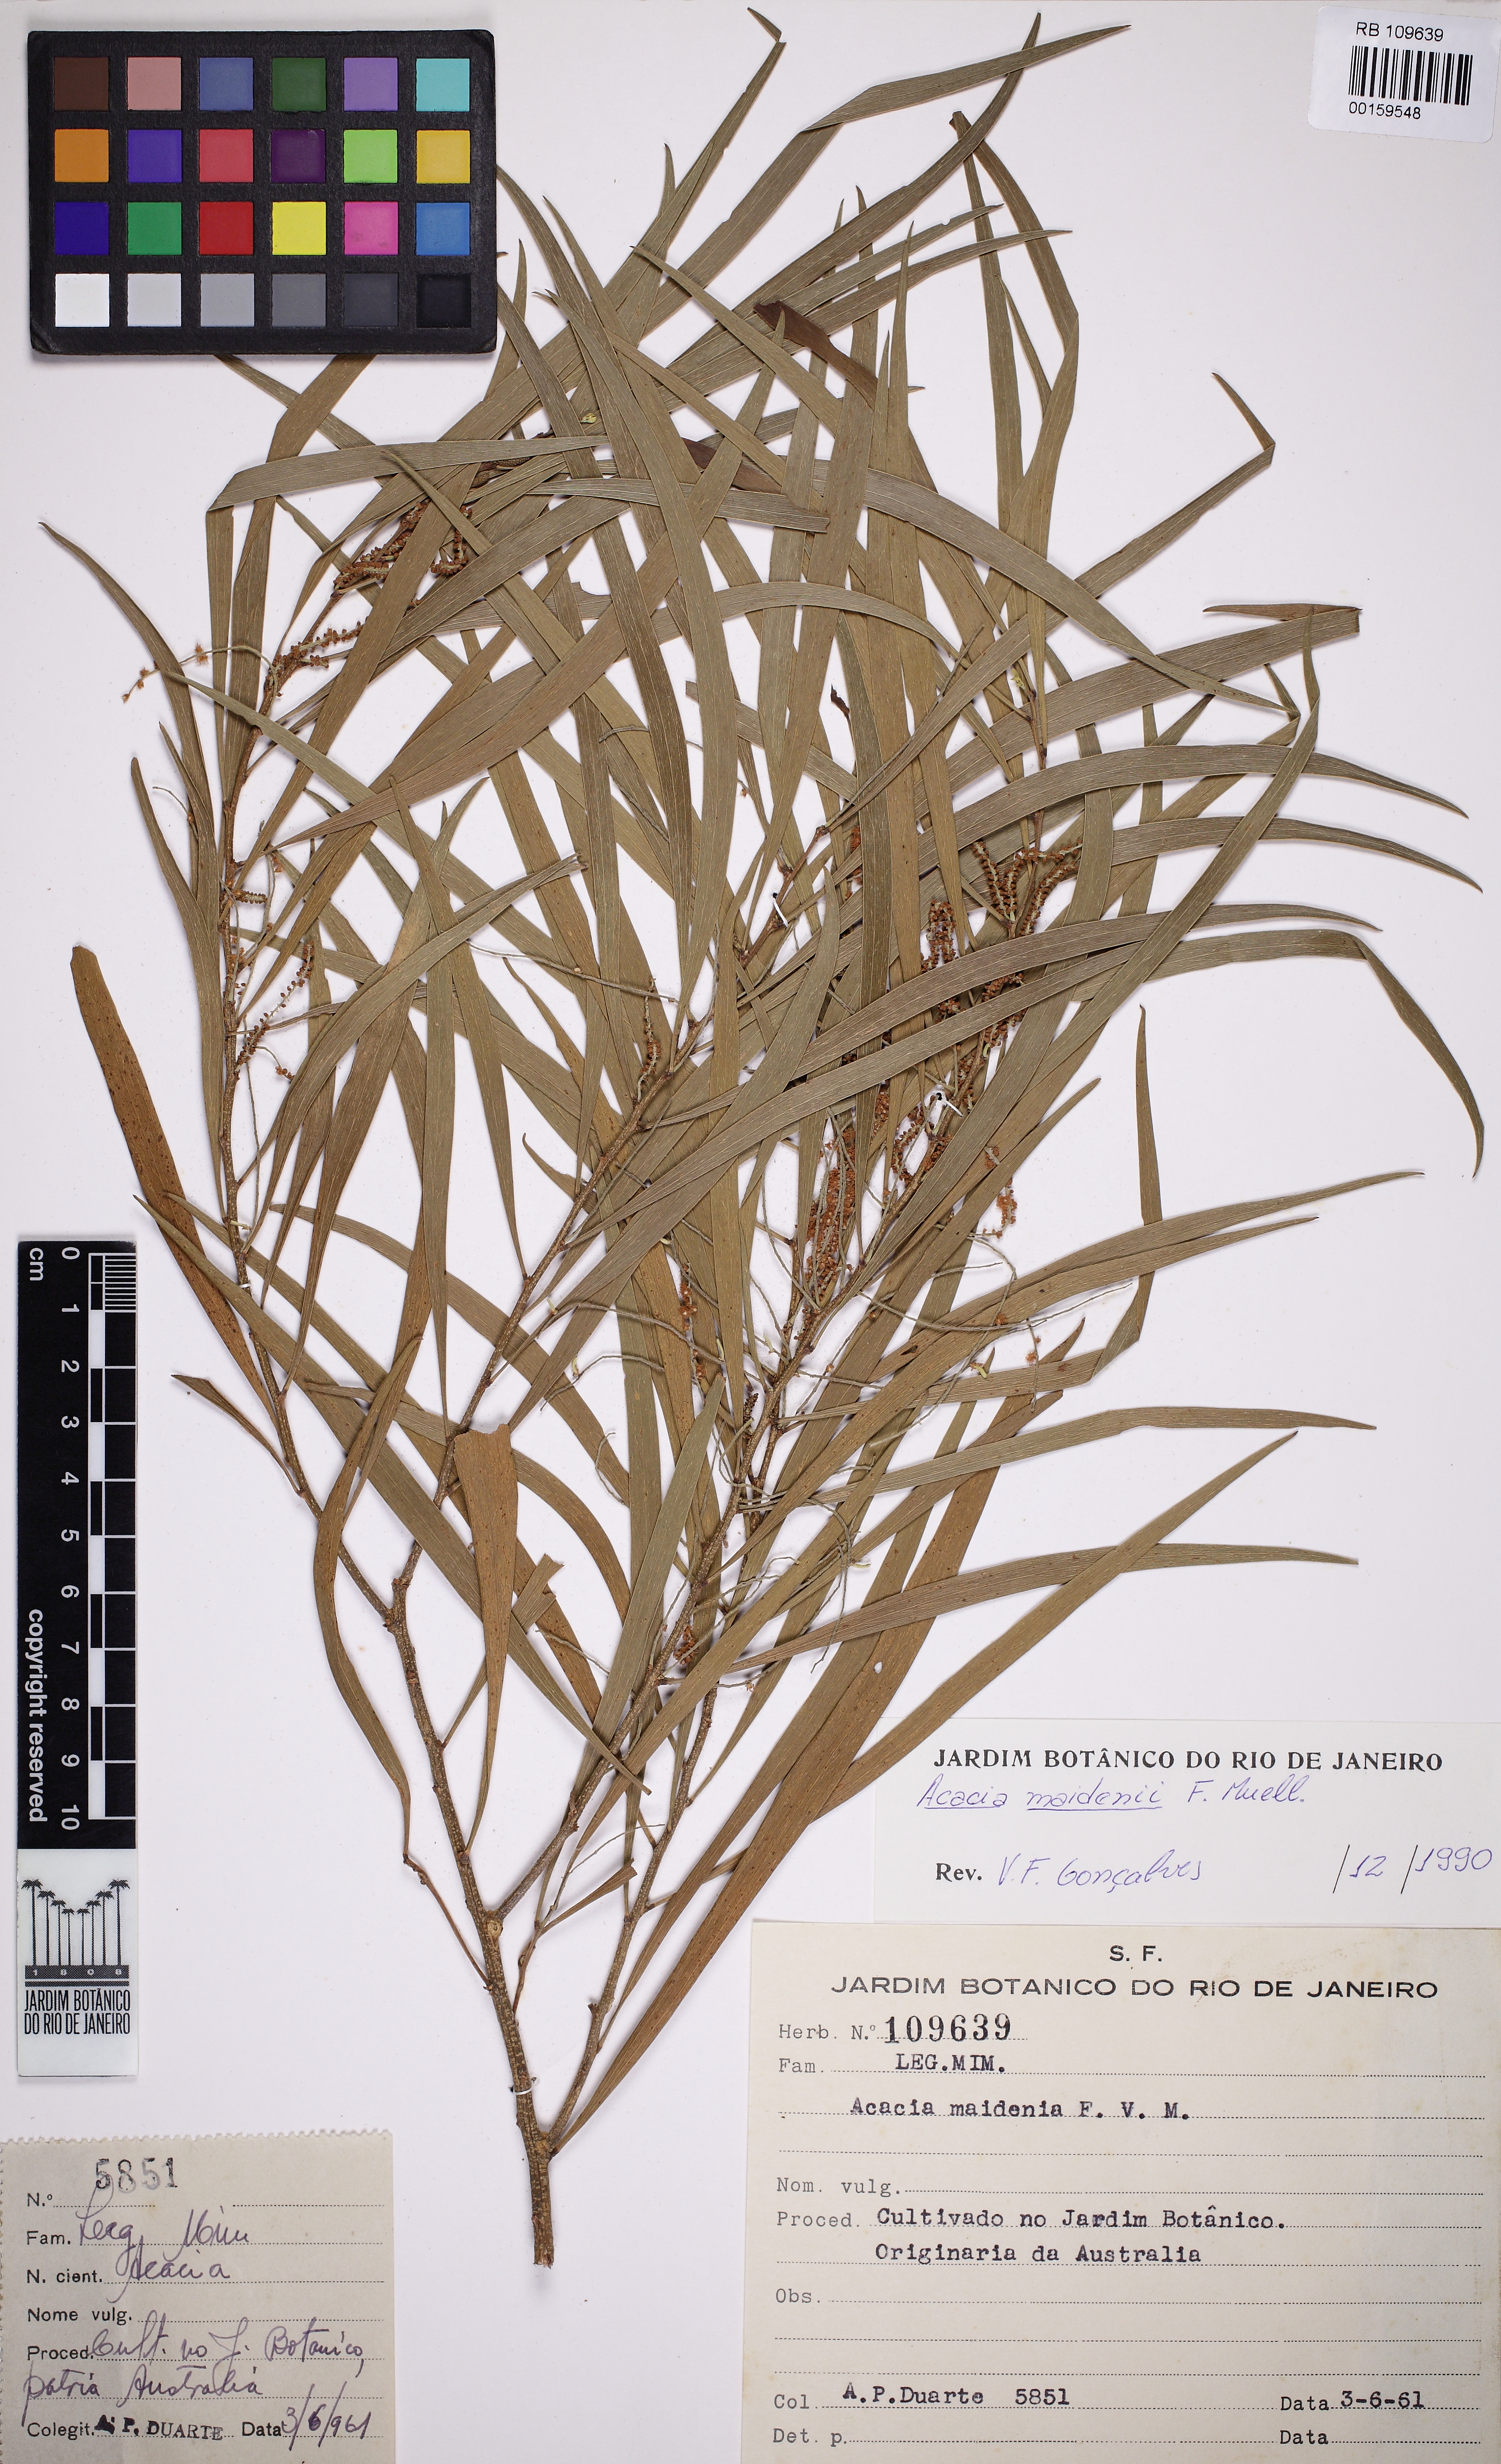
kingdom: Plantae
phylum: Tracheophyta
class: Magnoliopsida
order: Fabales
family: Fabaceae
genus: Acacia
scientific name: Acacia maidenii
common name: Maiden's wattle
